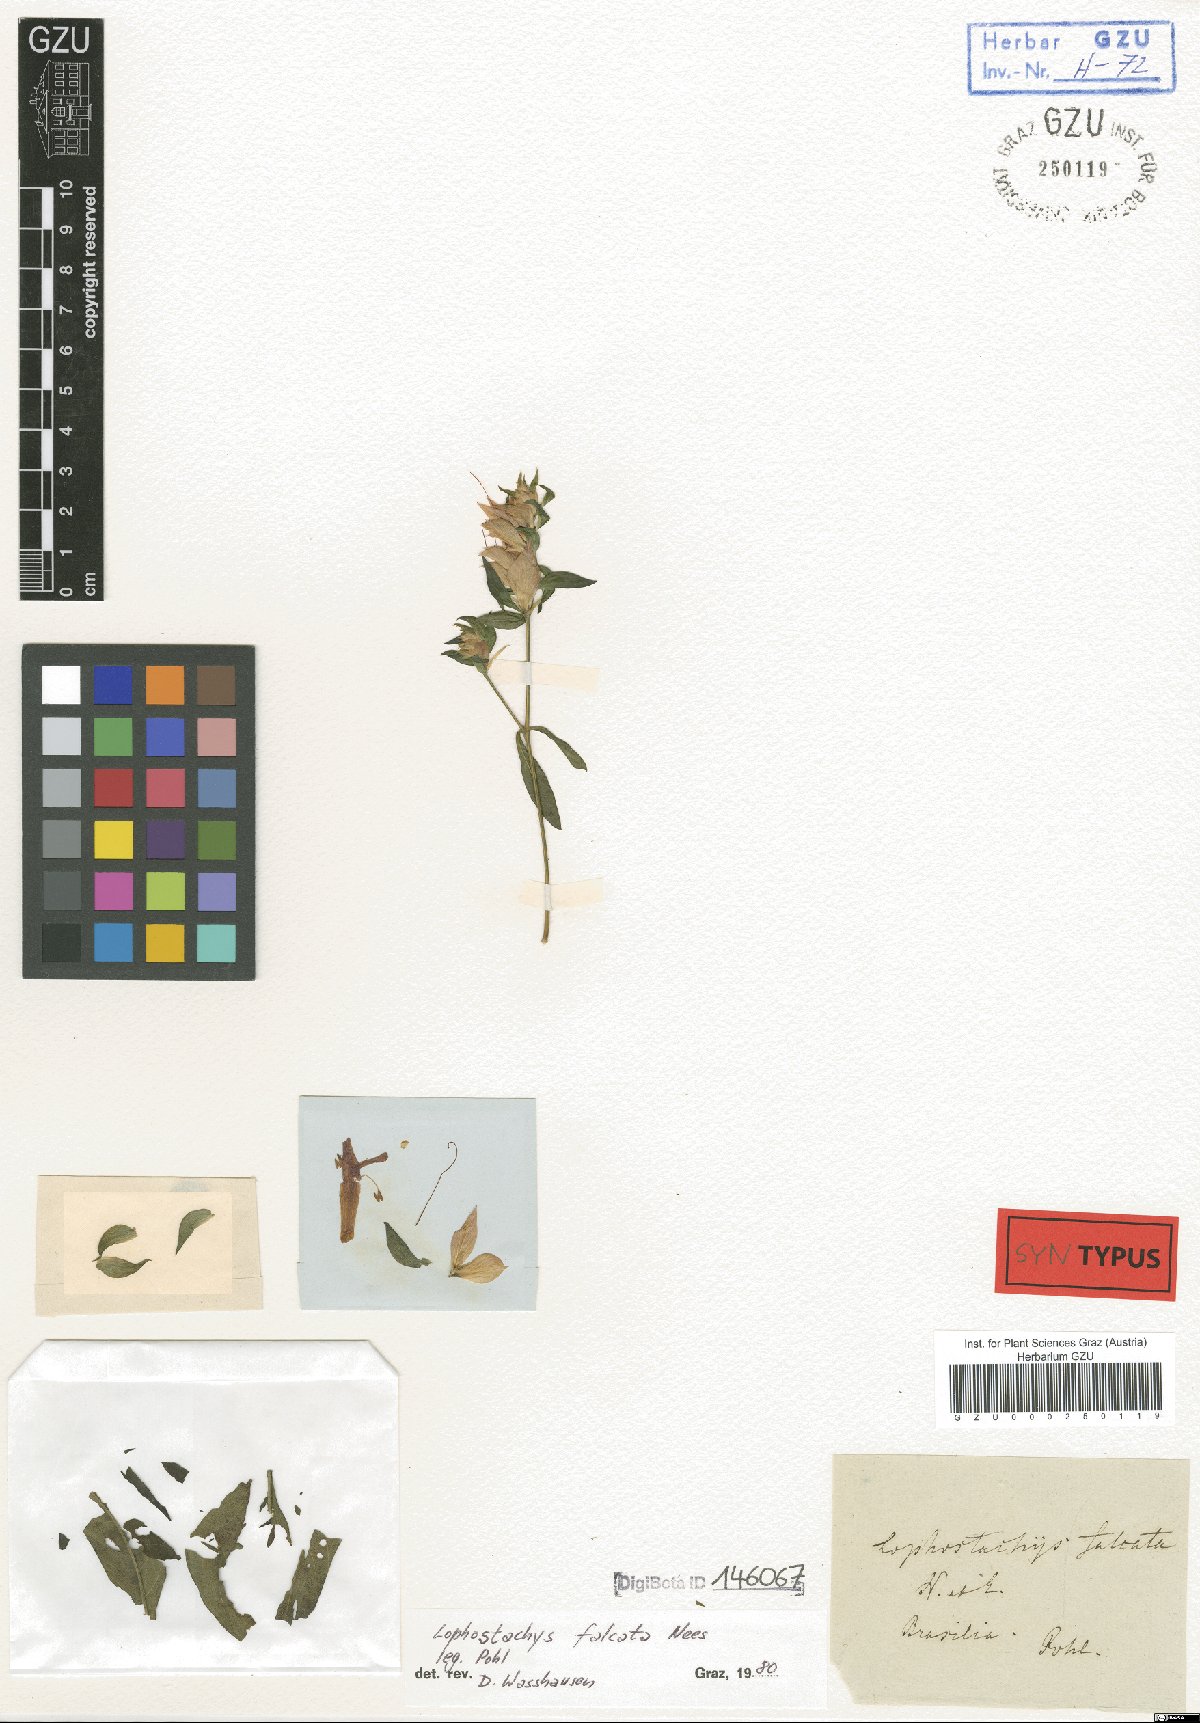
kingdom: Plantae
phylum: Tracheophyta
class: Magnoliopsida
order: Lamiales
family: Acanthaceae
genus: Lepidagathis
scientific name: Lepidagathis Lophostachys falcata
